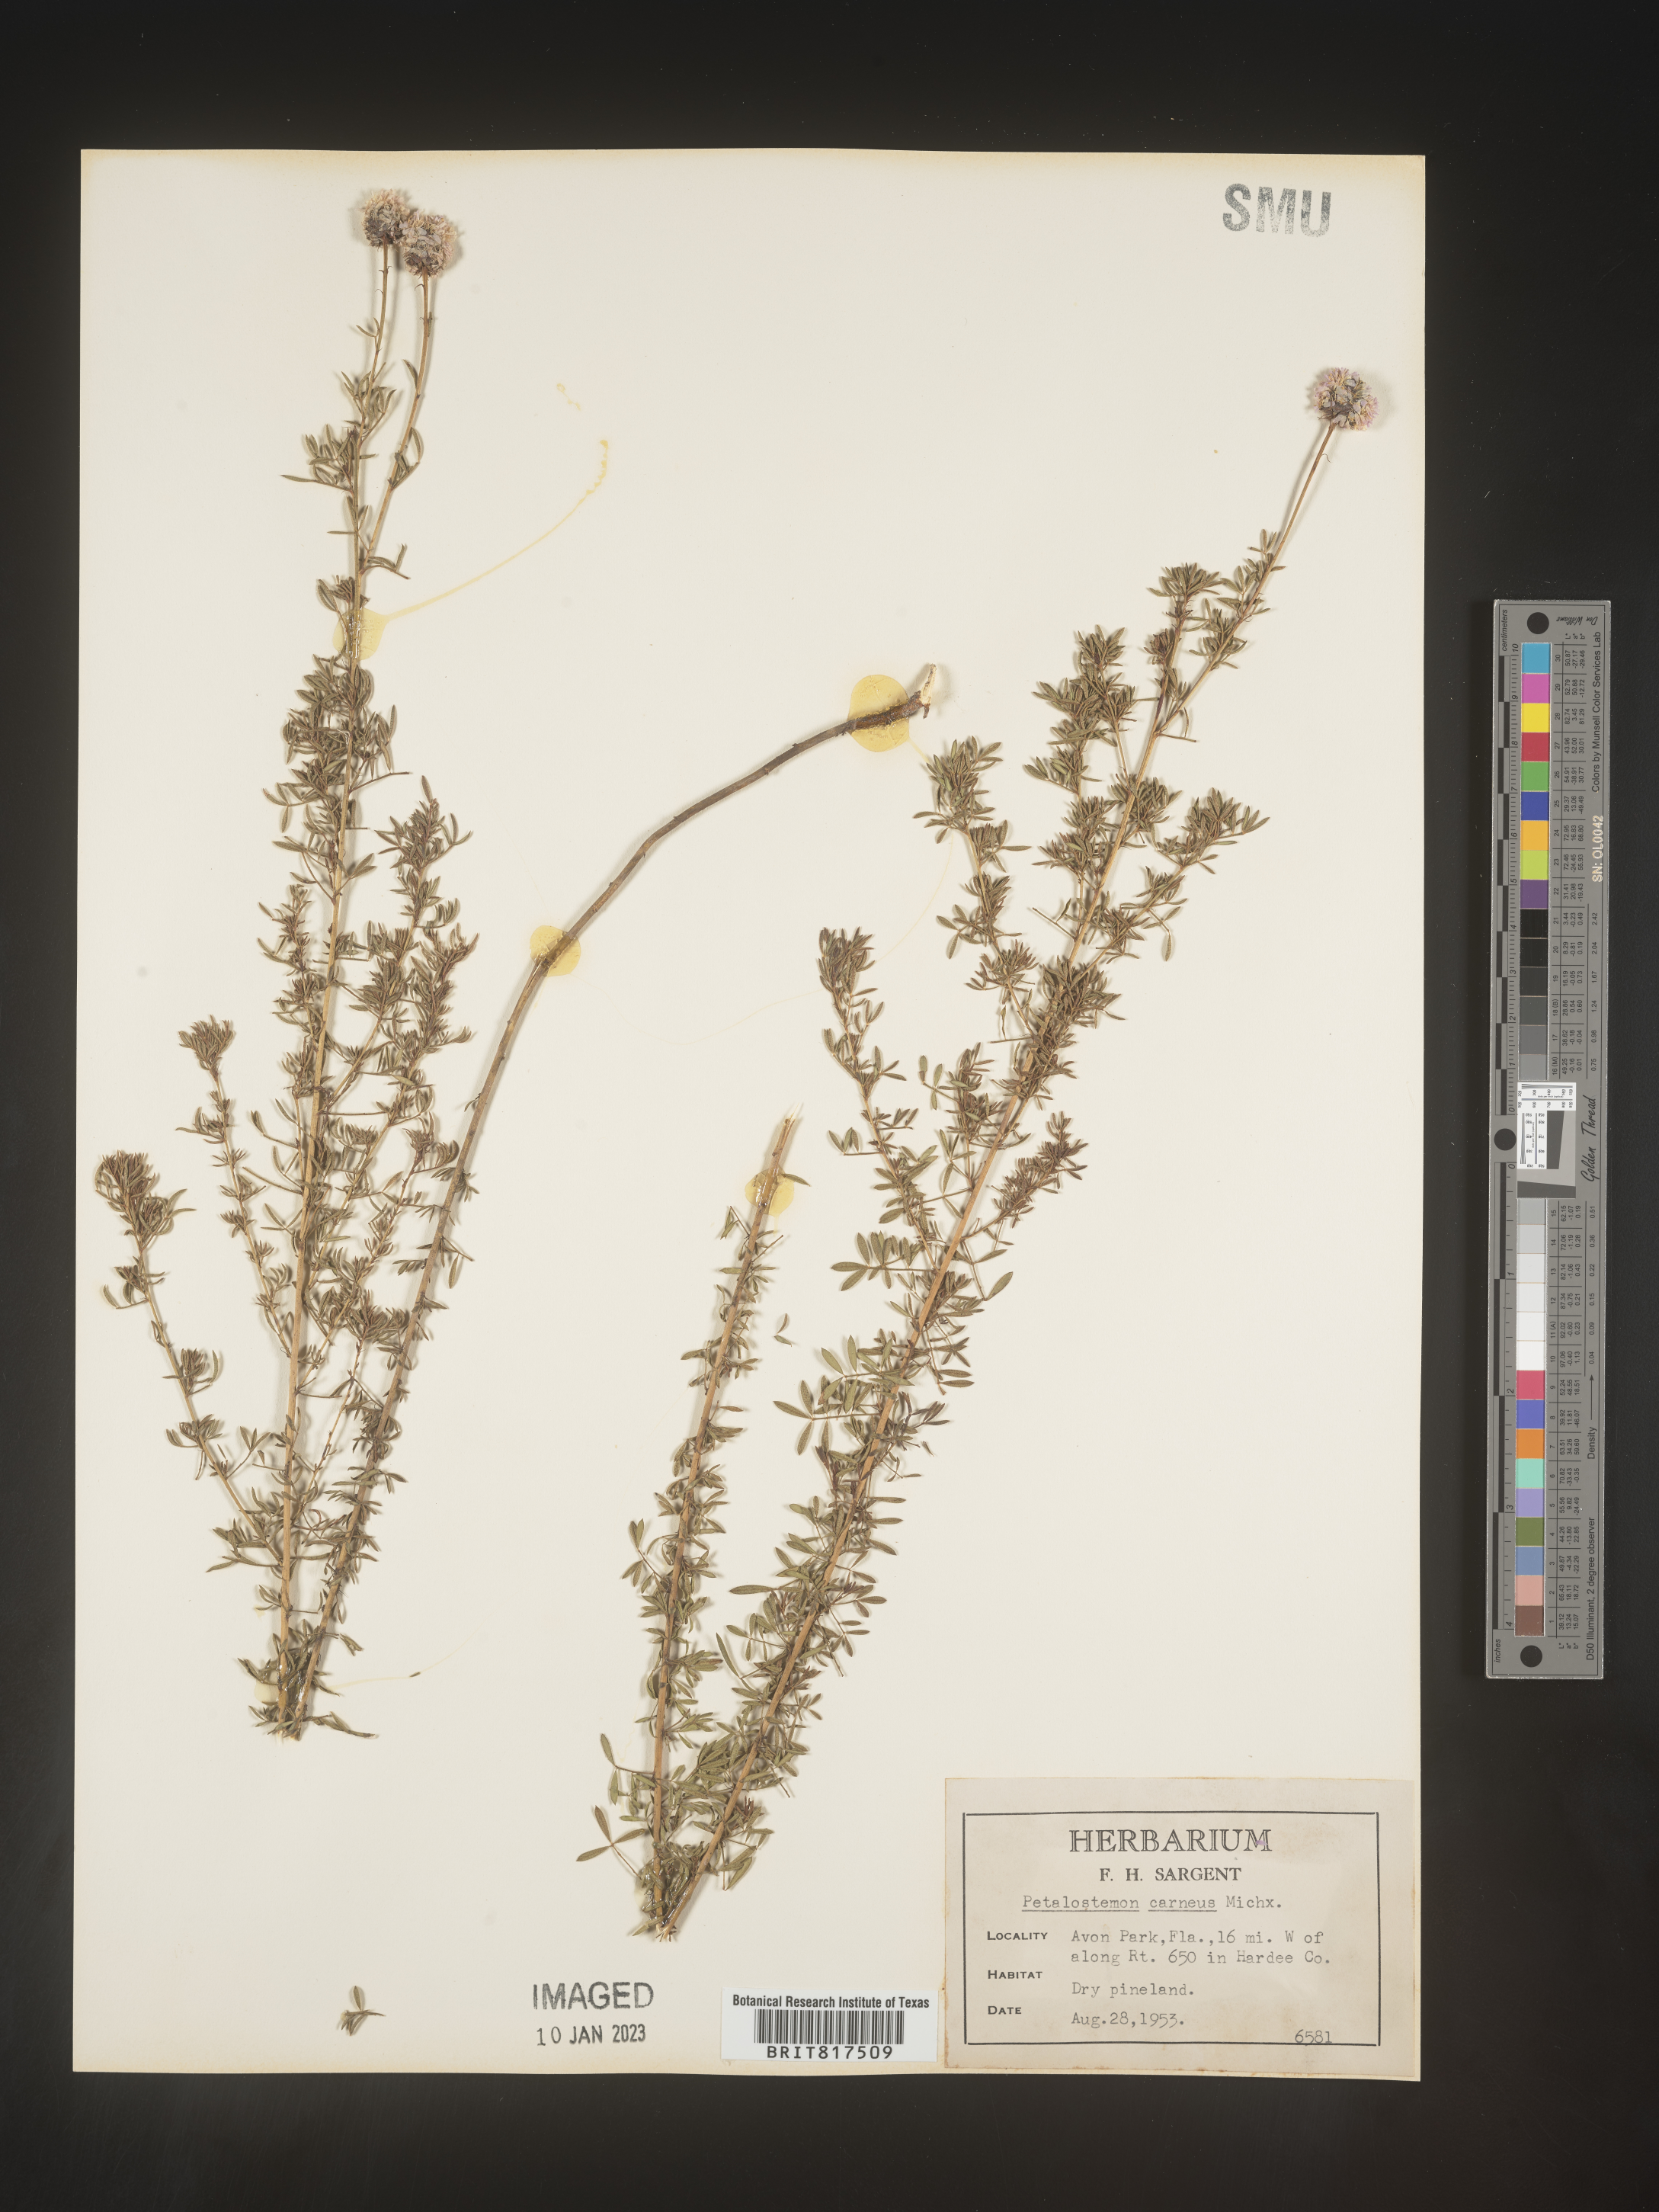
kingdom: Plantae
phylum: Tracheophyta
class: Magnoliopsida
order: Fabales
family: Fabaceae
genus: Dalea
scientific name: Dalea carnea
